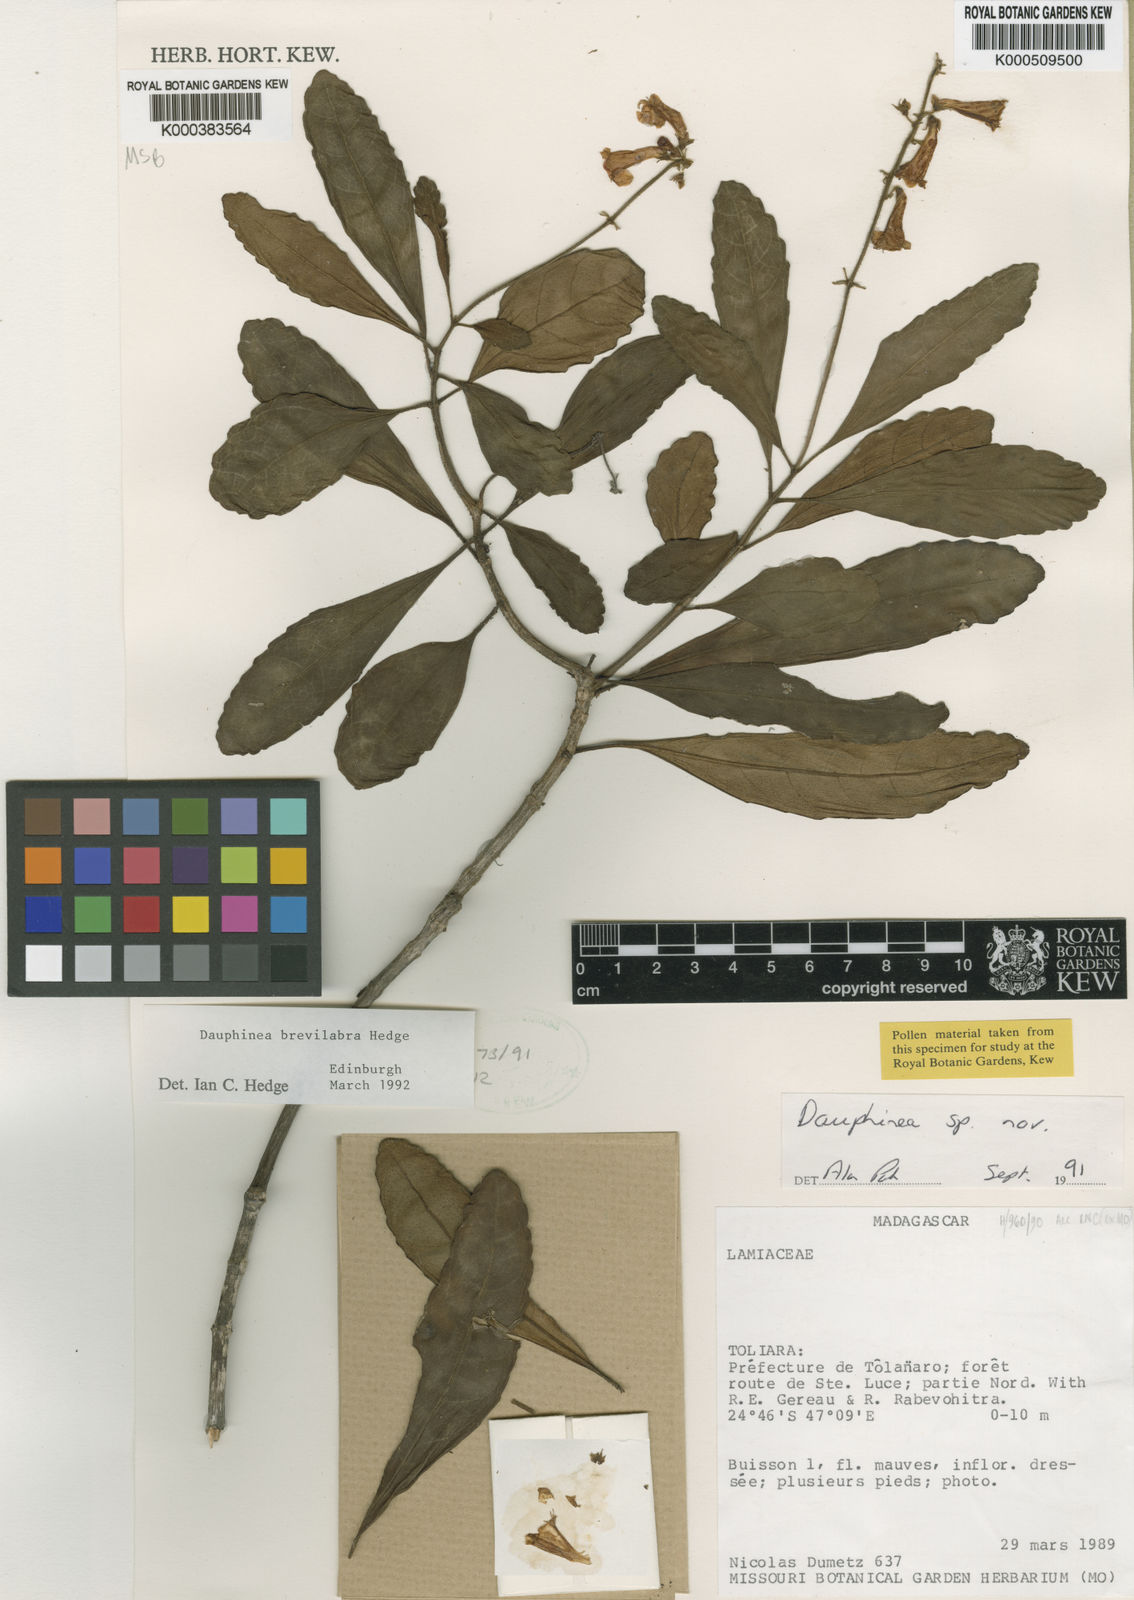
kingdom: Plantae
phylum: Tracheophyta
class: Magnoliopsida
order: Lamiales
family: Lamiaceae
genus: Capitanopsis
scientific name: Capitanopsis brevilabra
